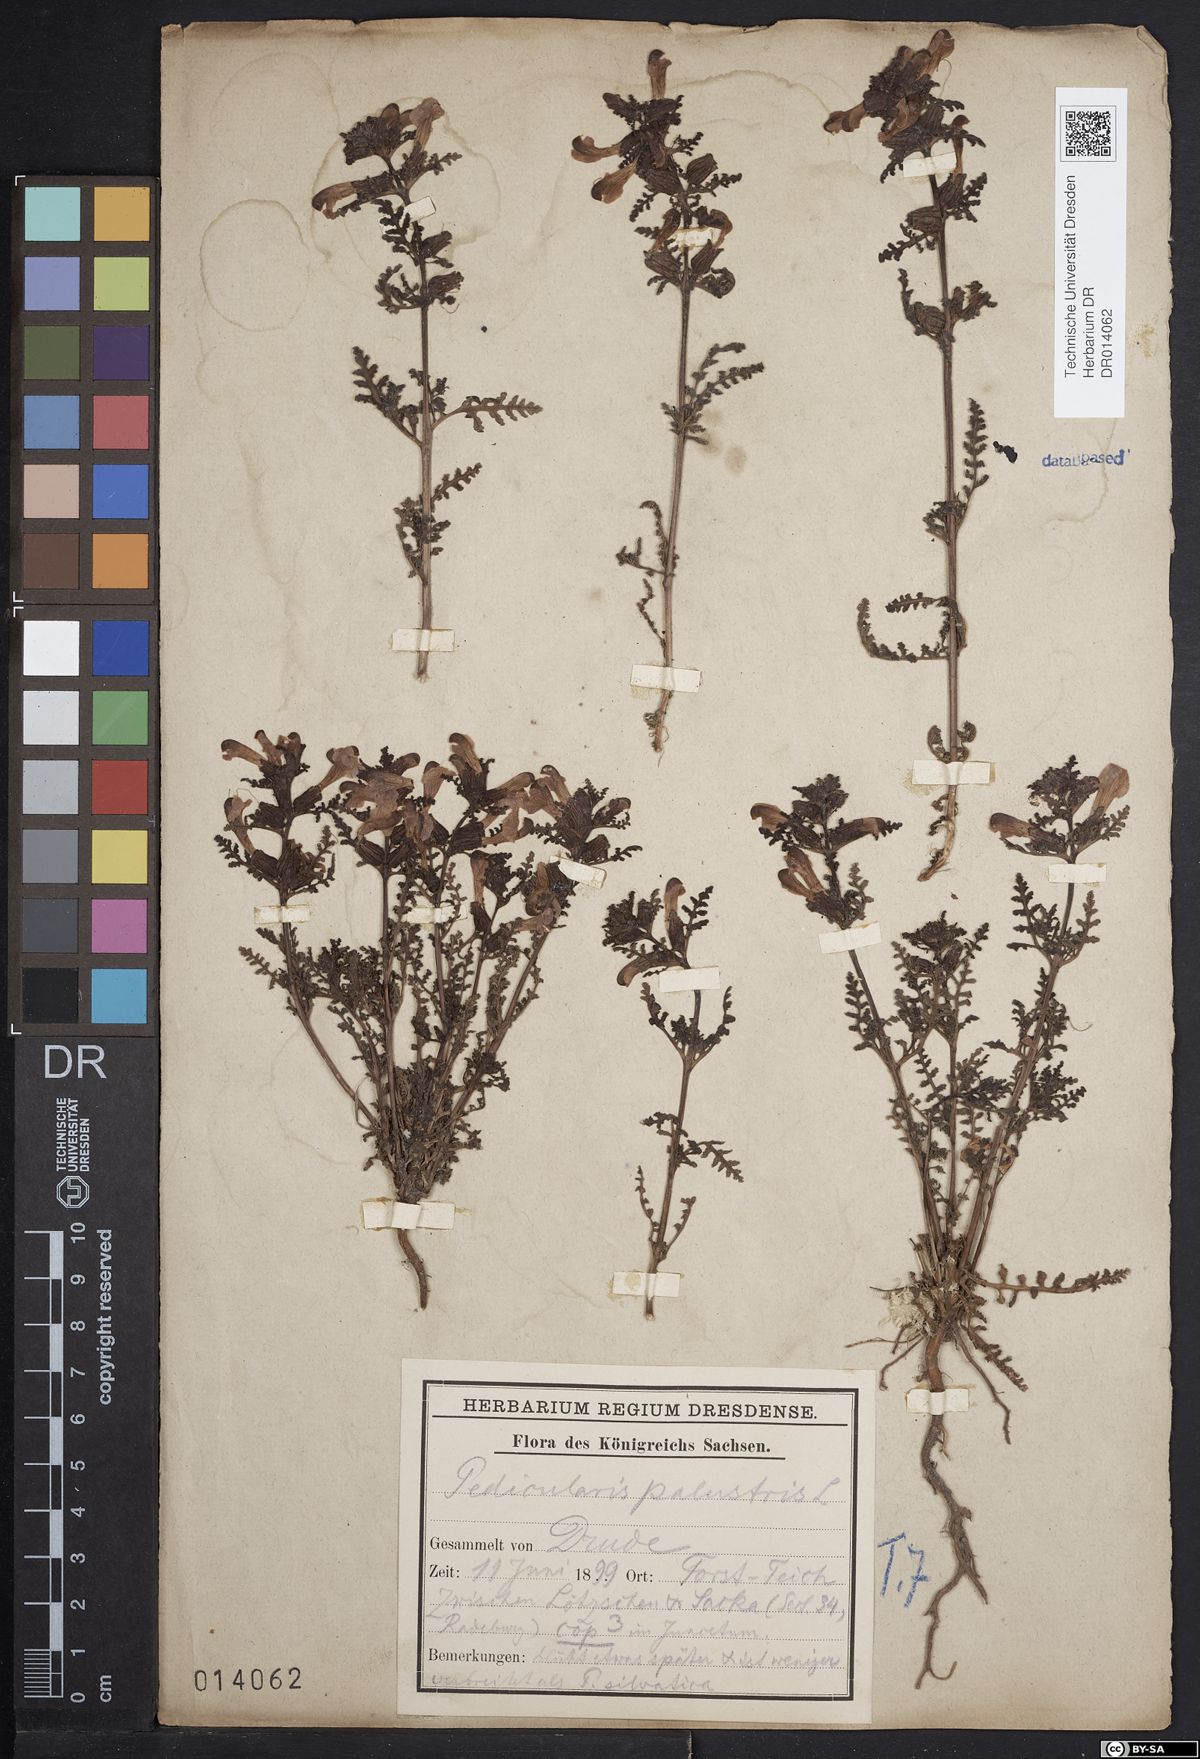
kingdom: Plantae
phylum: Tracheophyta
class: Magnoliopsida
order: Lamiales
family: Orobanchaceae
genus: Pedicularis
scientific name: Pedicularis palustris
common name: Marsh lousewort
